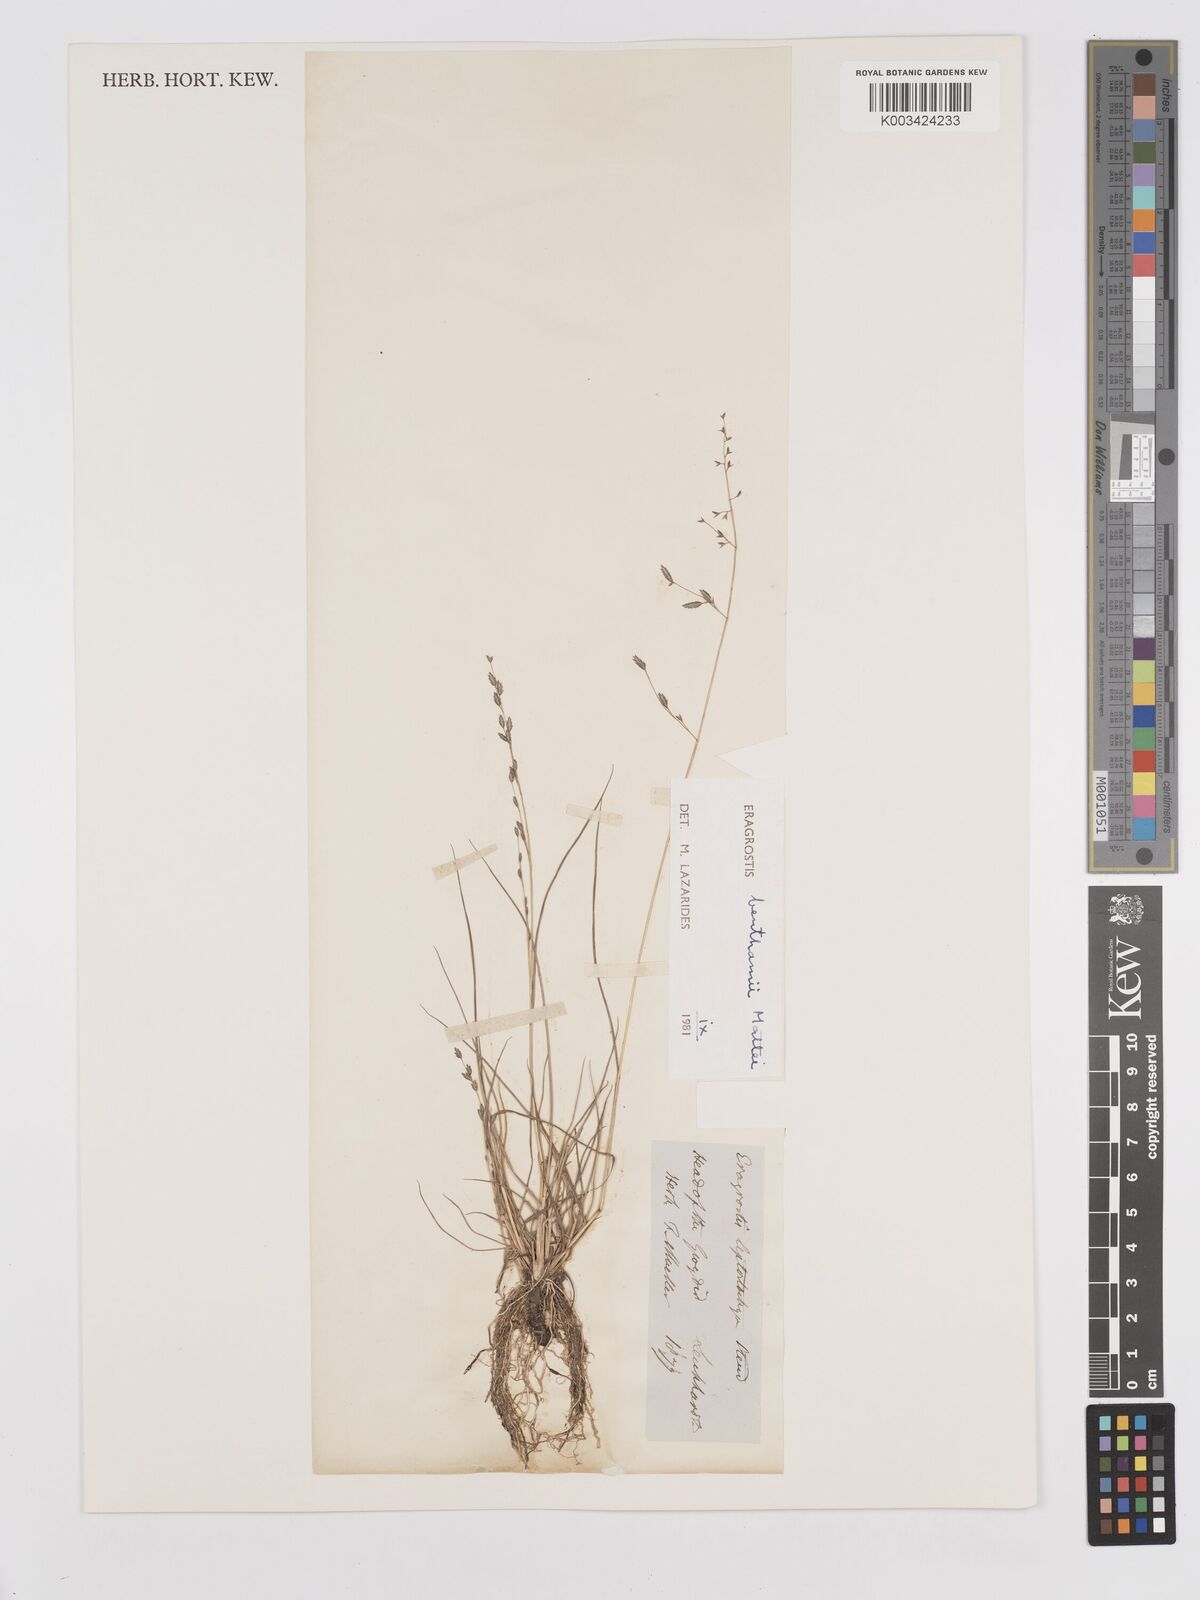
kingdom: Plantae
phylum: Tracheophyta
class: Liliopsida
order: Poales
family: Poaceae
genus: Eragrostis
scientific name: Eragrostis brownii
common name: Lovegrass
